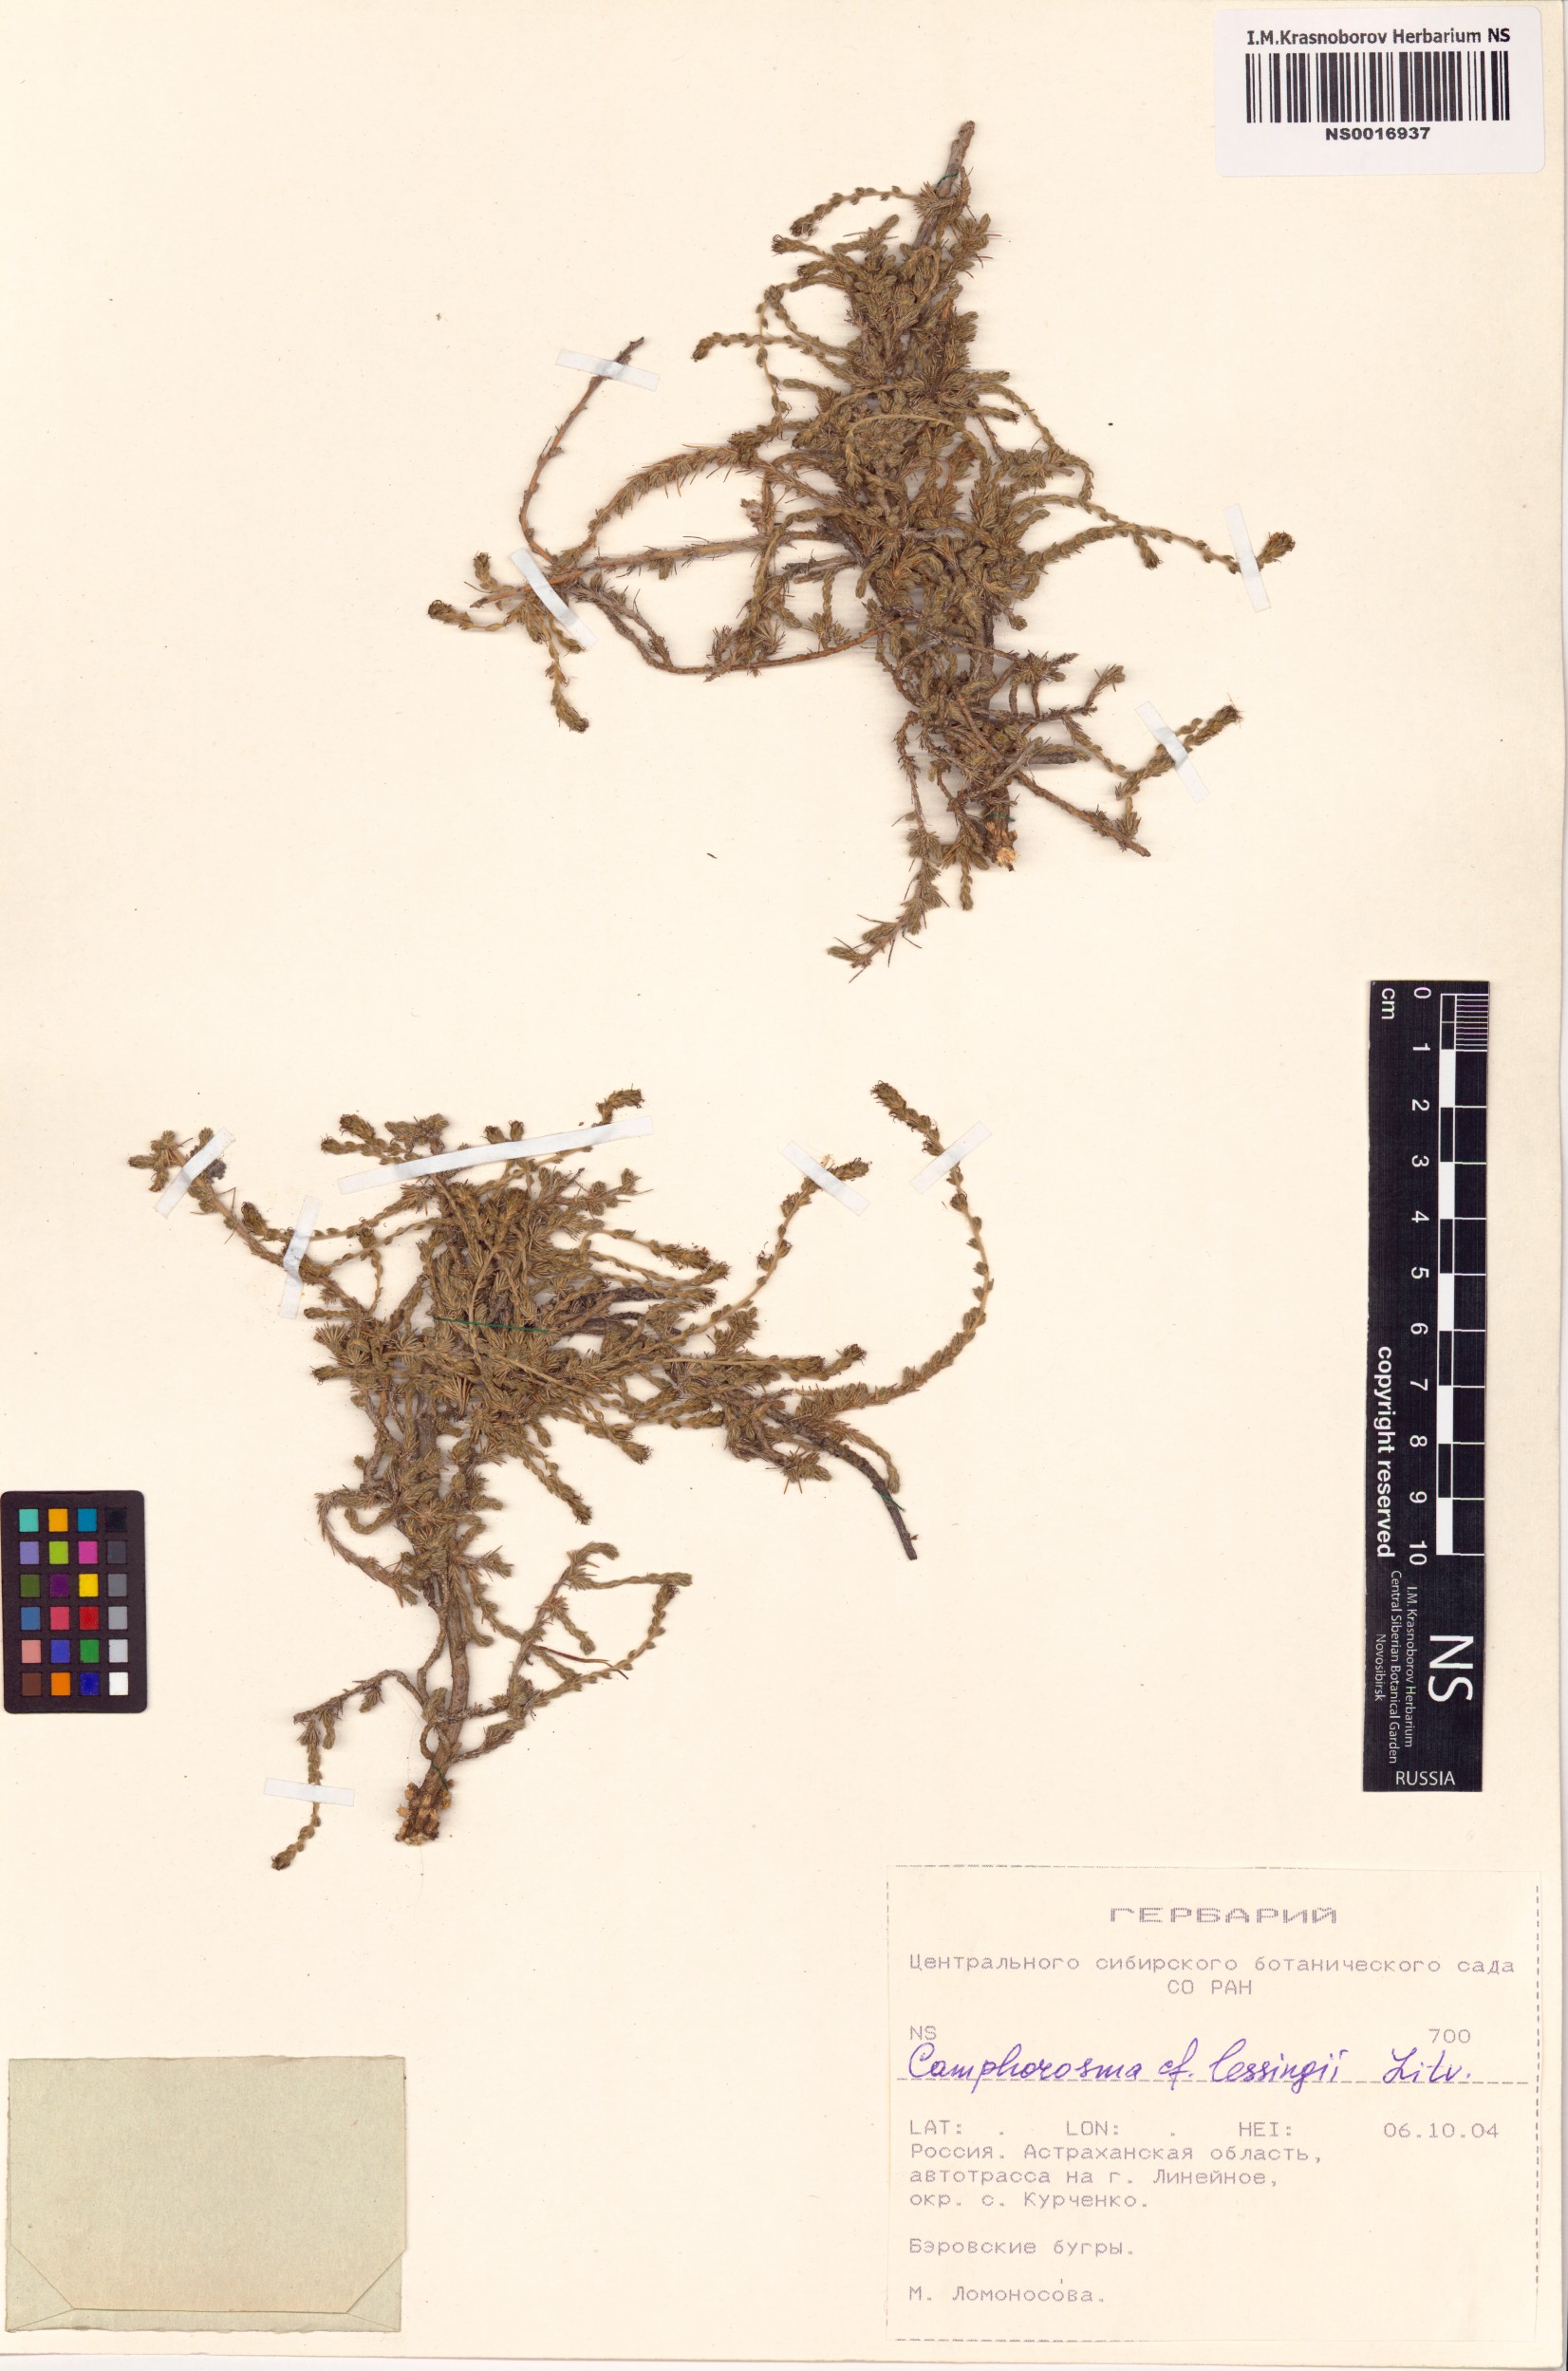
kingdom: Plantae
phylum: Tracheophyta
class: Magnoliopsida
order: Caryophyllales
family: Amaranthaceae
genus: Camphorosma
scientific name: Camphorosma monspeliaca
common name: Camphorfume
